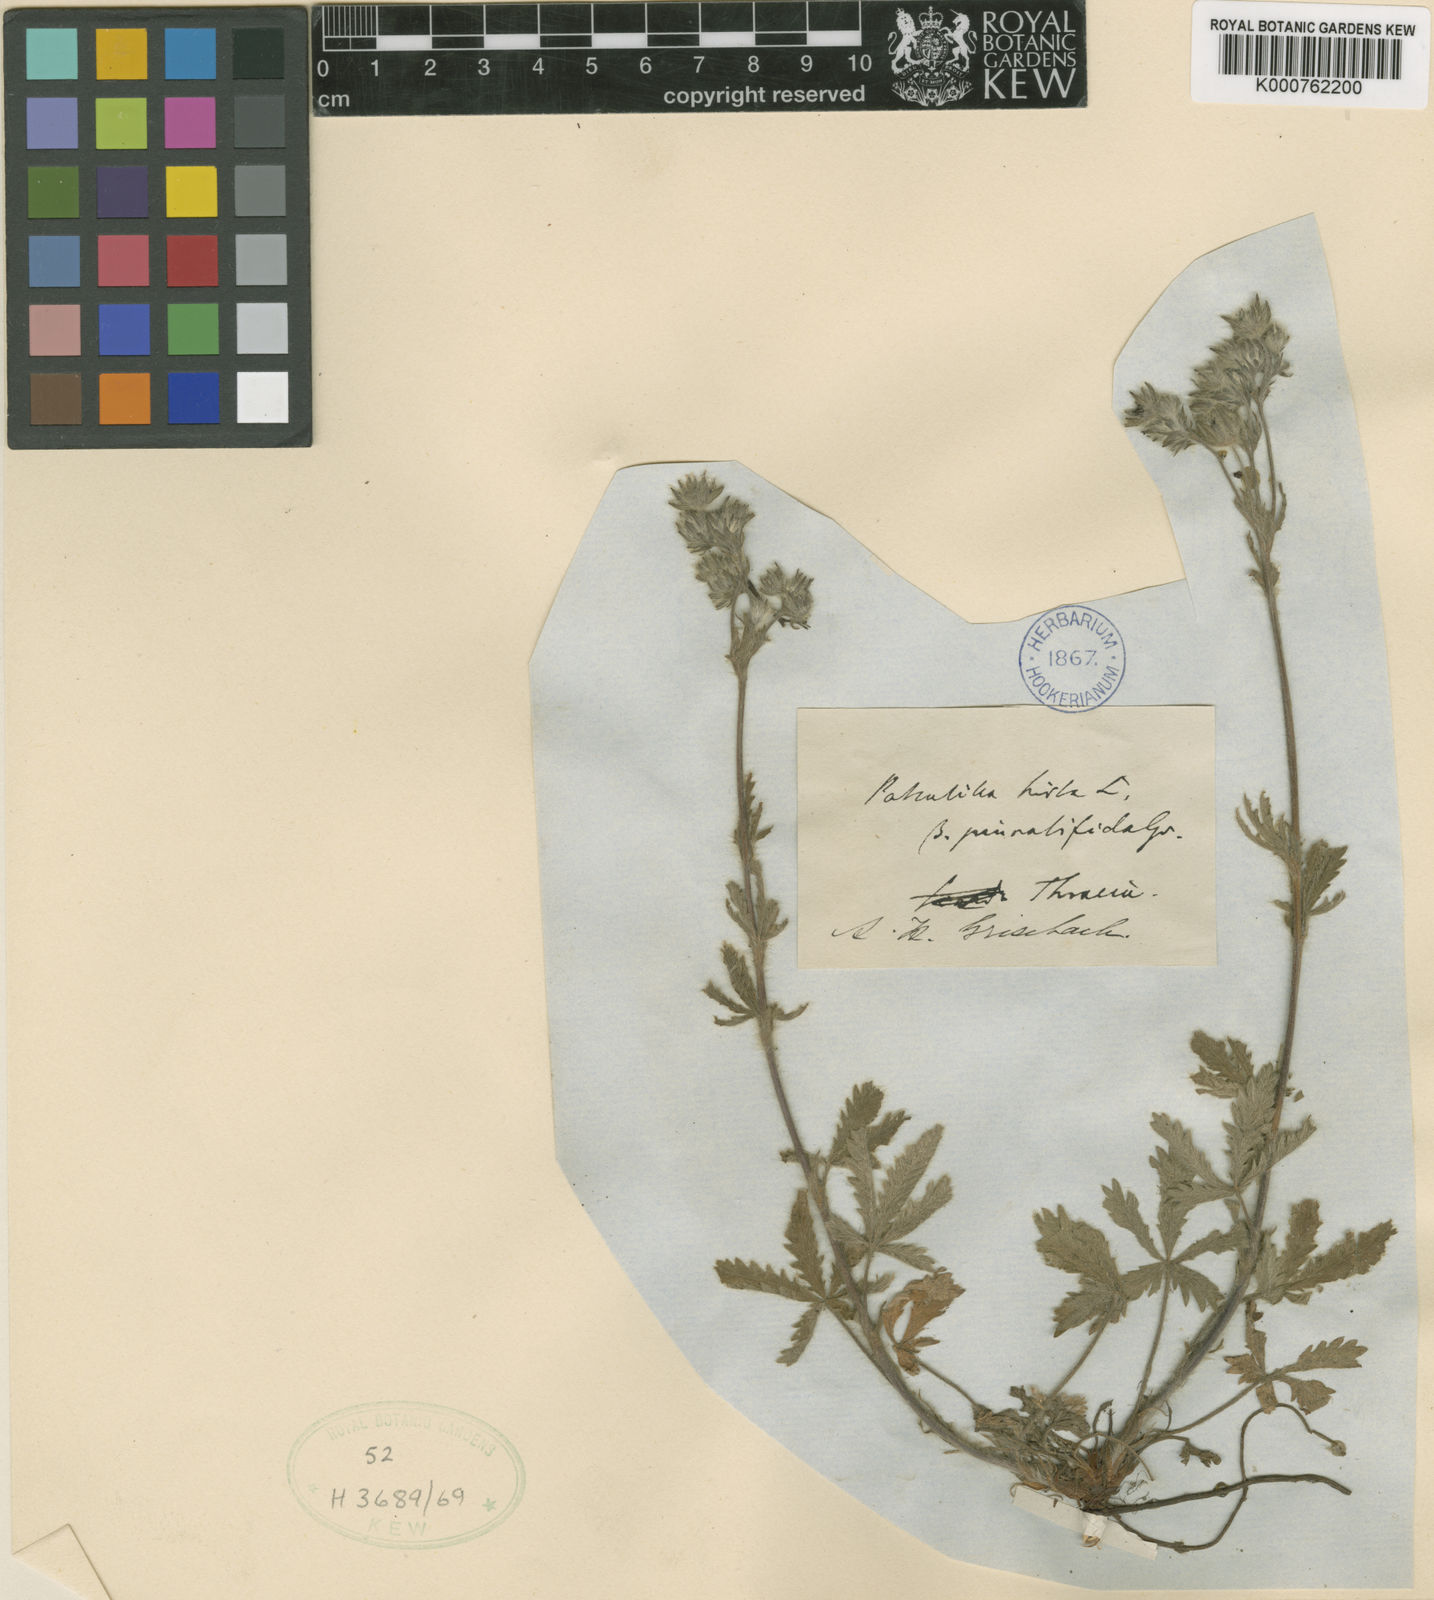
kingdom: Plantae
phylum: Tracheophyta
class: Magnoliopsida
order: Rosales
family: Rosaceae
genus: Potentilla
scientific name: Potentilla detommasii
